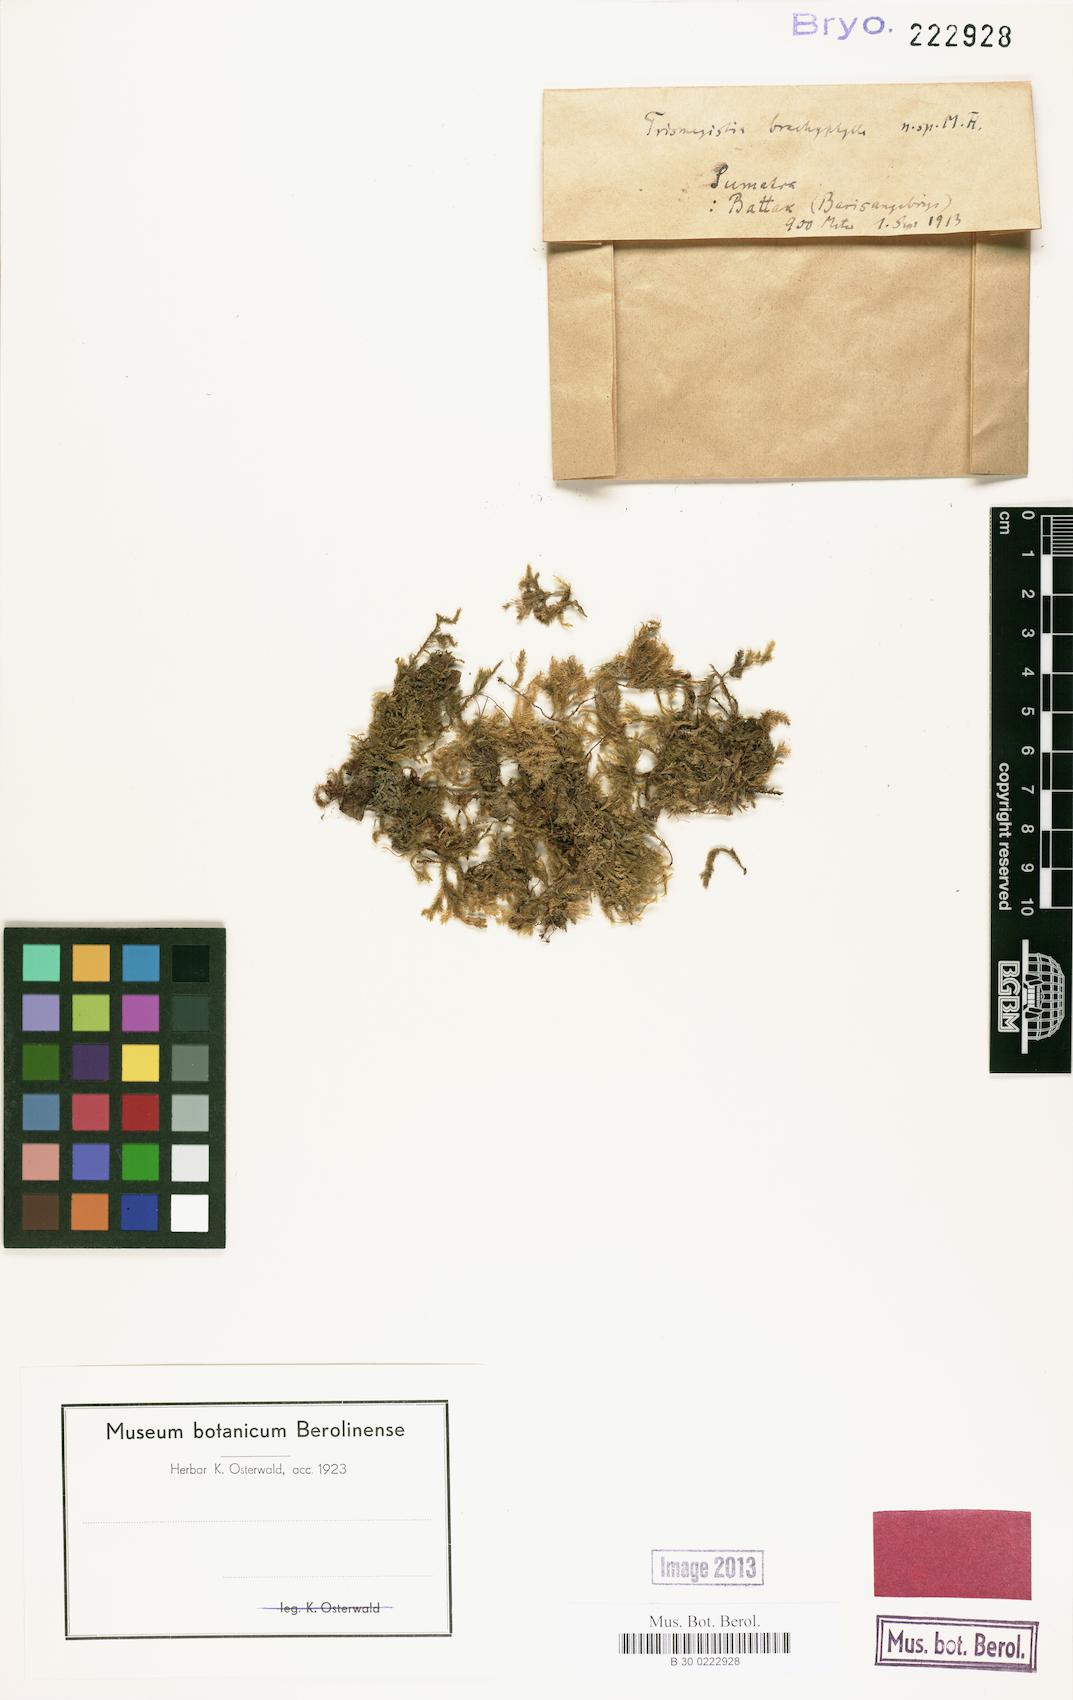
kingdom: Plantae
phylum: Bryophyta
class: Bryopsida
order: Hypnales
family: Pylaisiadelphaceae
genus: Trismegistia
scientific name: Trismegistia brachyphylla
